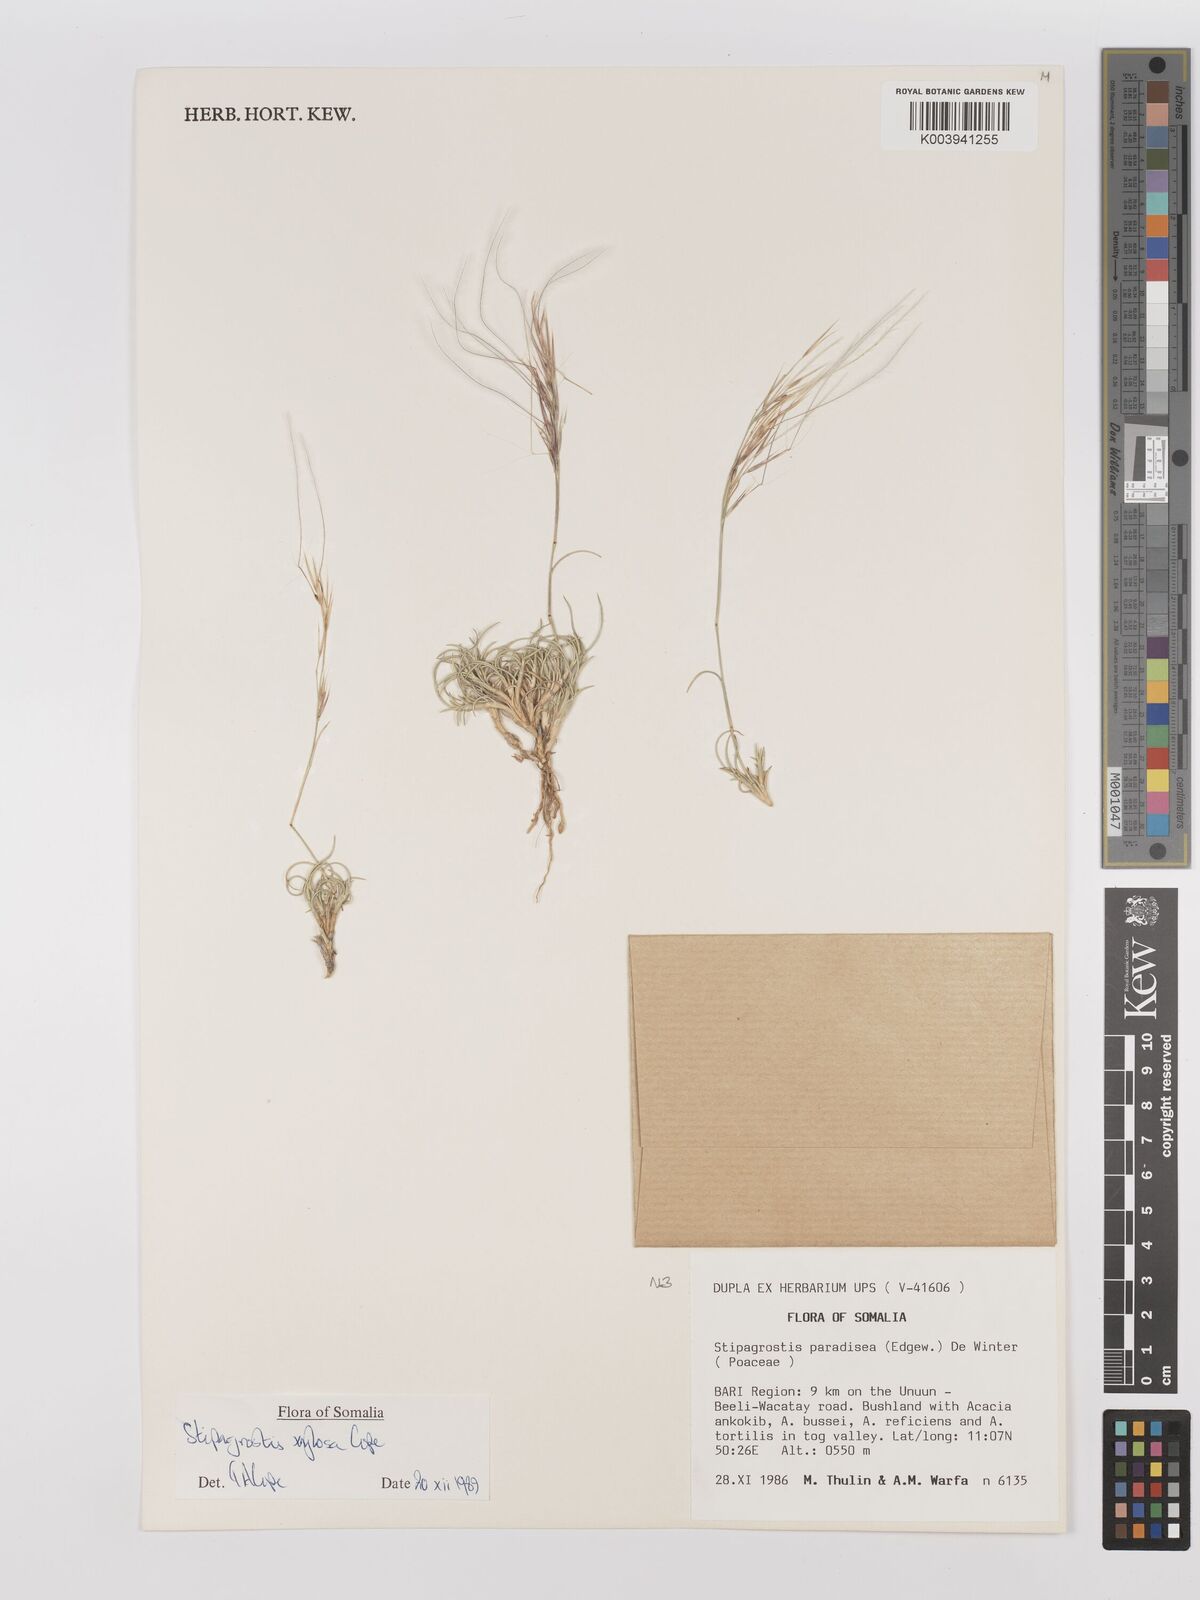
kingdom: Plantae
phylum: Tracheophyta
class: Liliopsida
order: Poales
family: Poaceae
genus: Stipagrostis
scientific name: Stipagrostis xylosa
